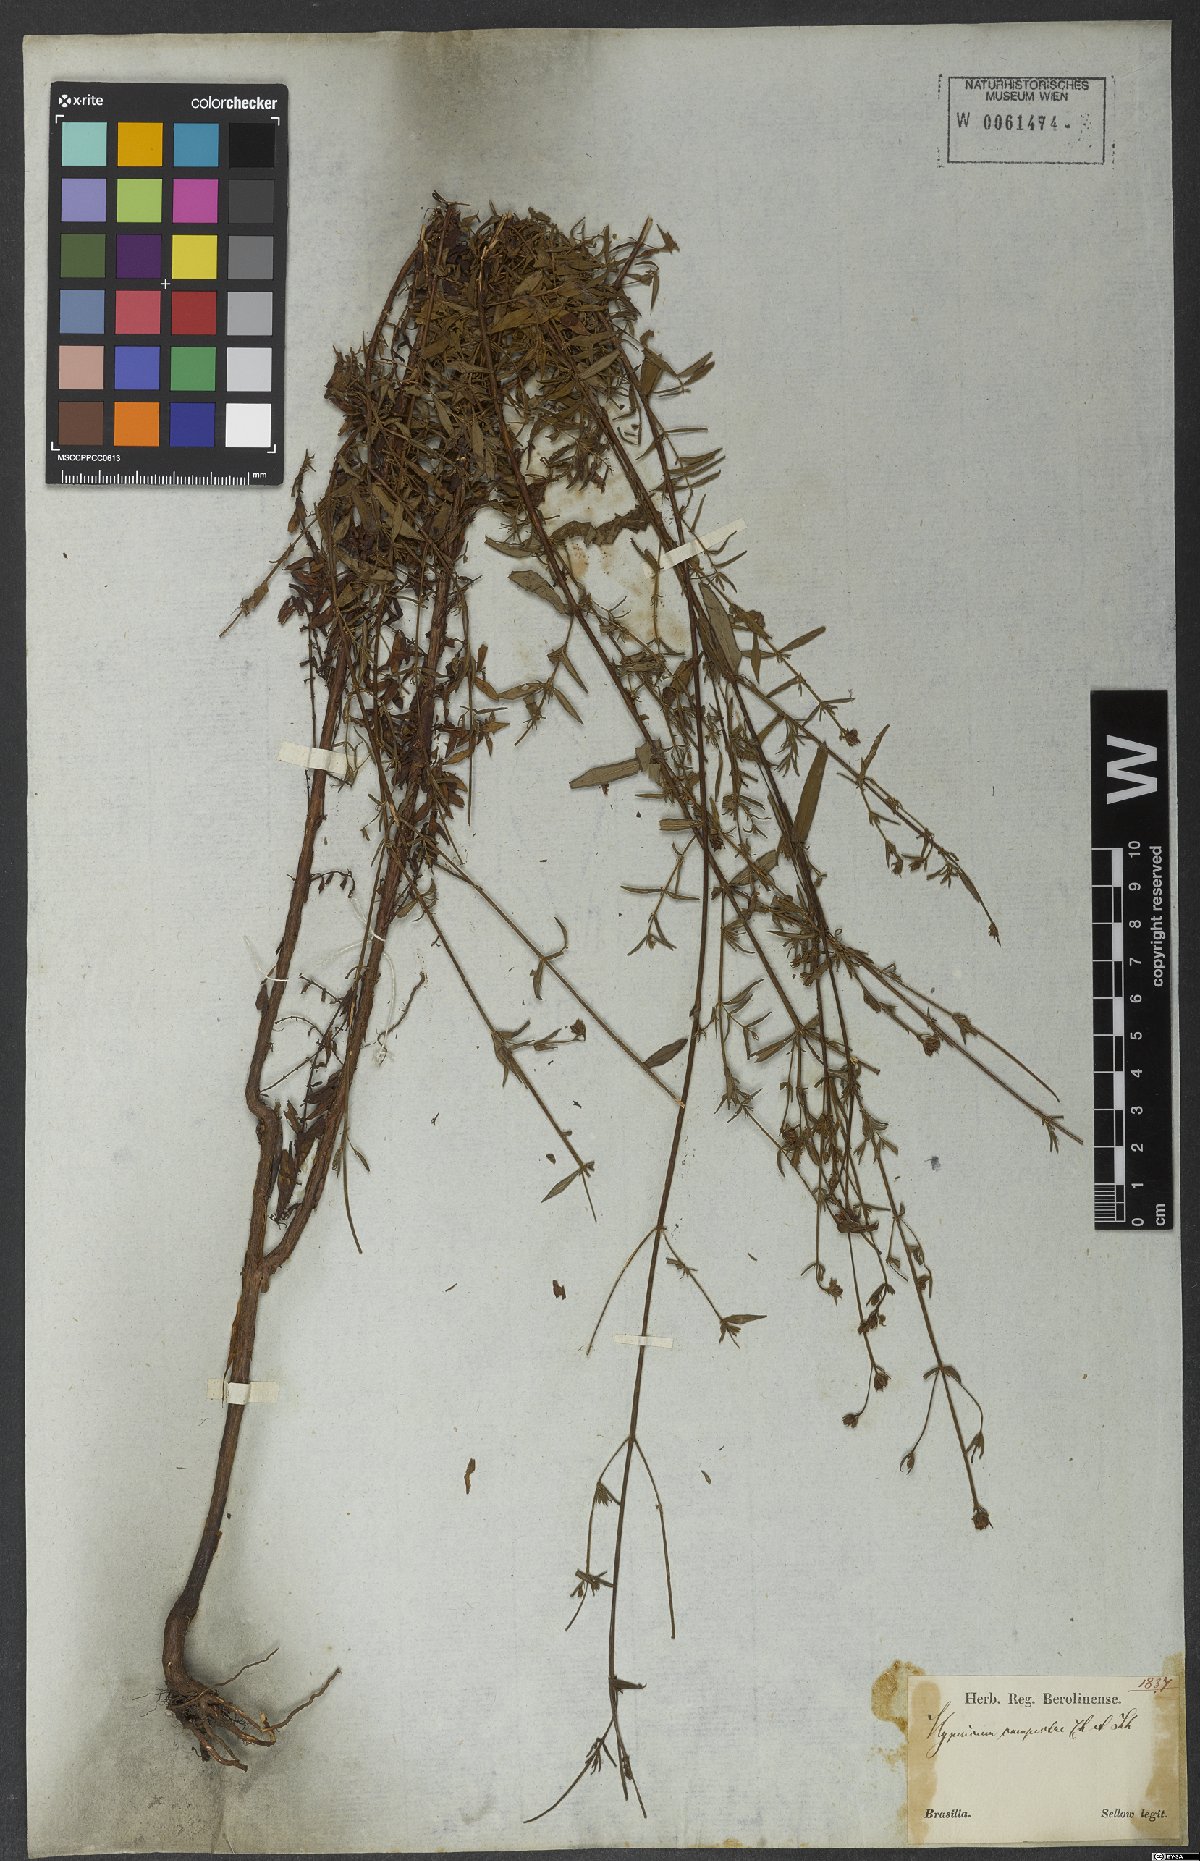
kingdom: Plantae
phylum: Tracheophyta
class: Magnoliopsida
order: Malpighiales
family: Hypericaceae
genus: Hypericum
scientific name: Hypericum campestre
